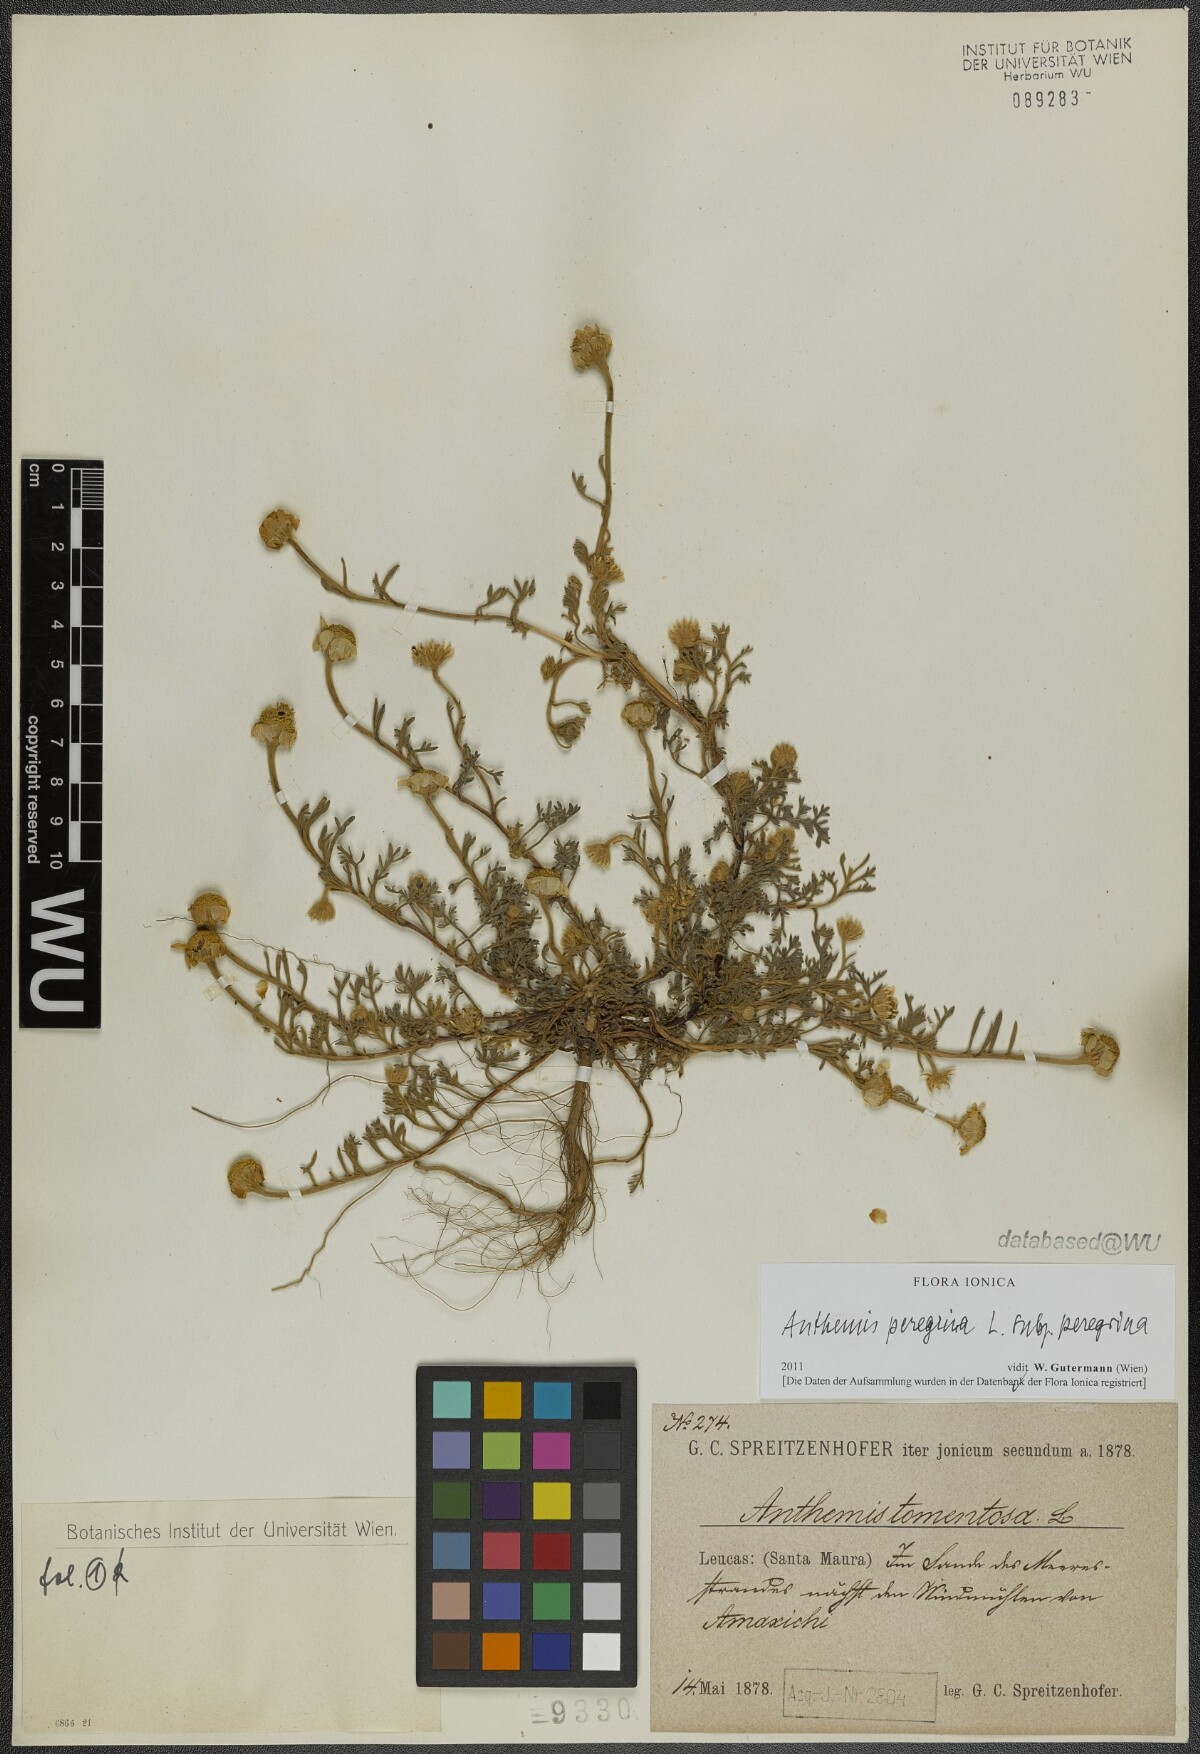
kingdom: Plantae
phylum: Tracheophyta
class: Magnoliopsida
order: Asterales
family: Asteraceae
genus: Anthemis
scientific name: Anthemis tomentosa
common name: Woolly chamomile
